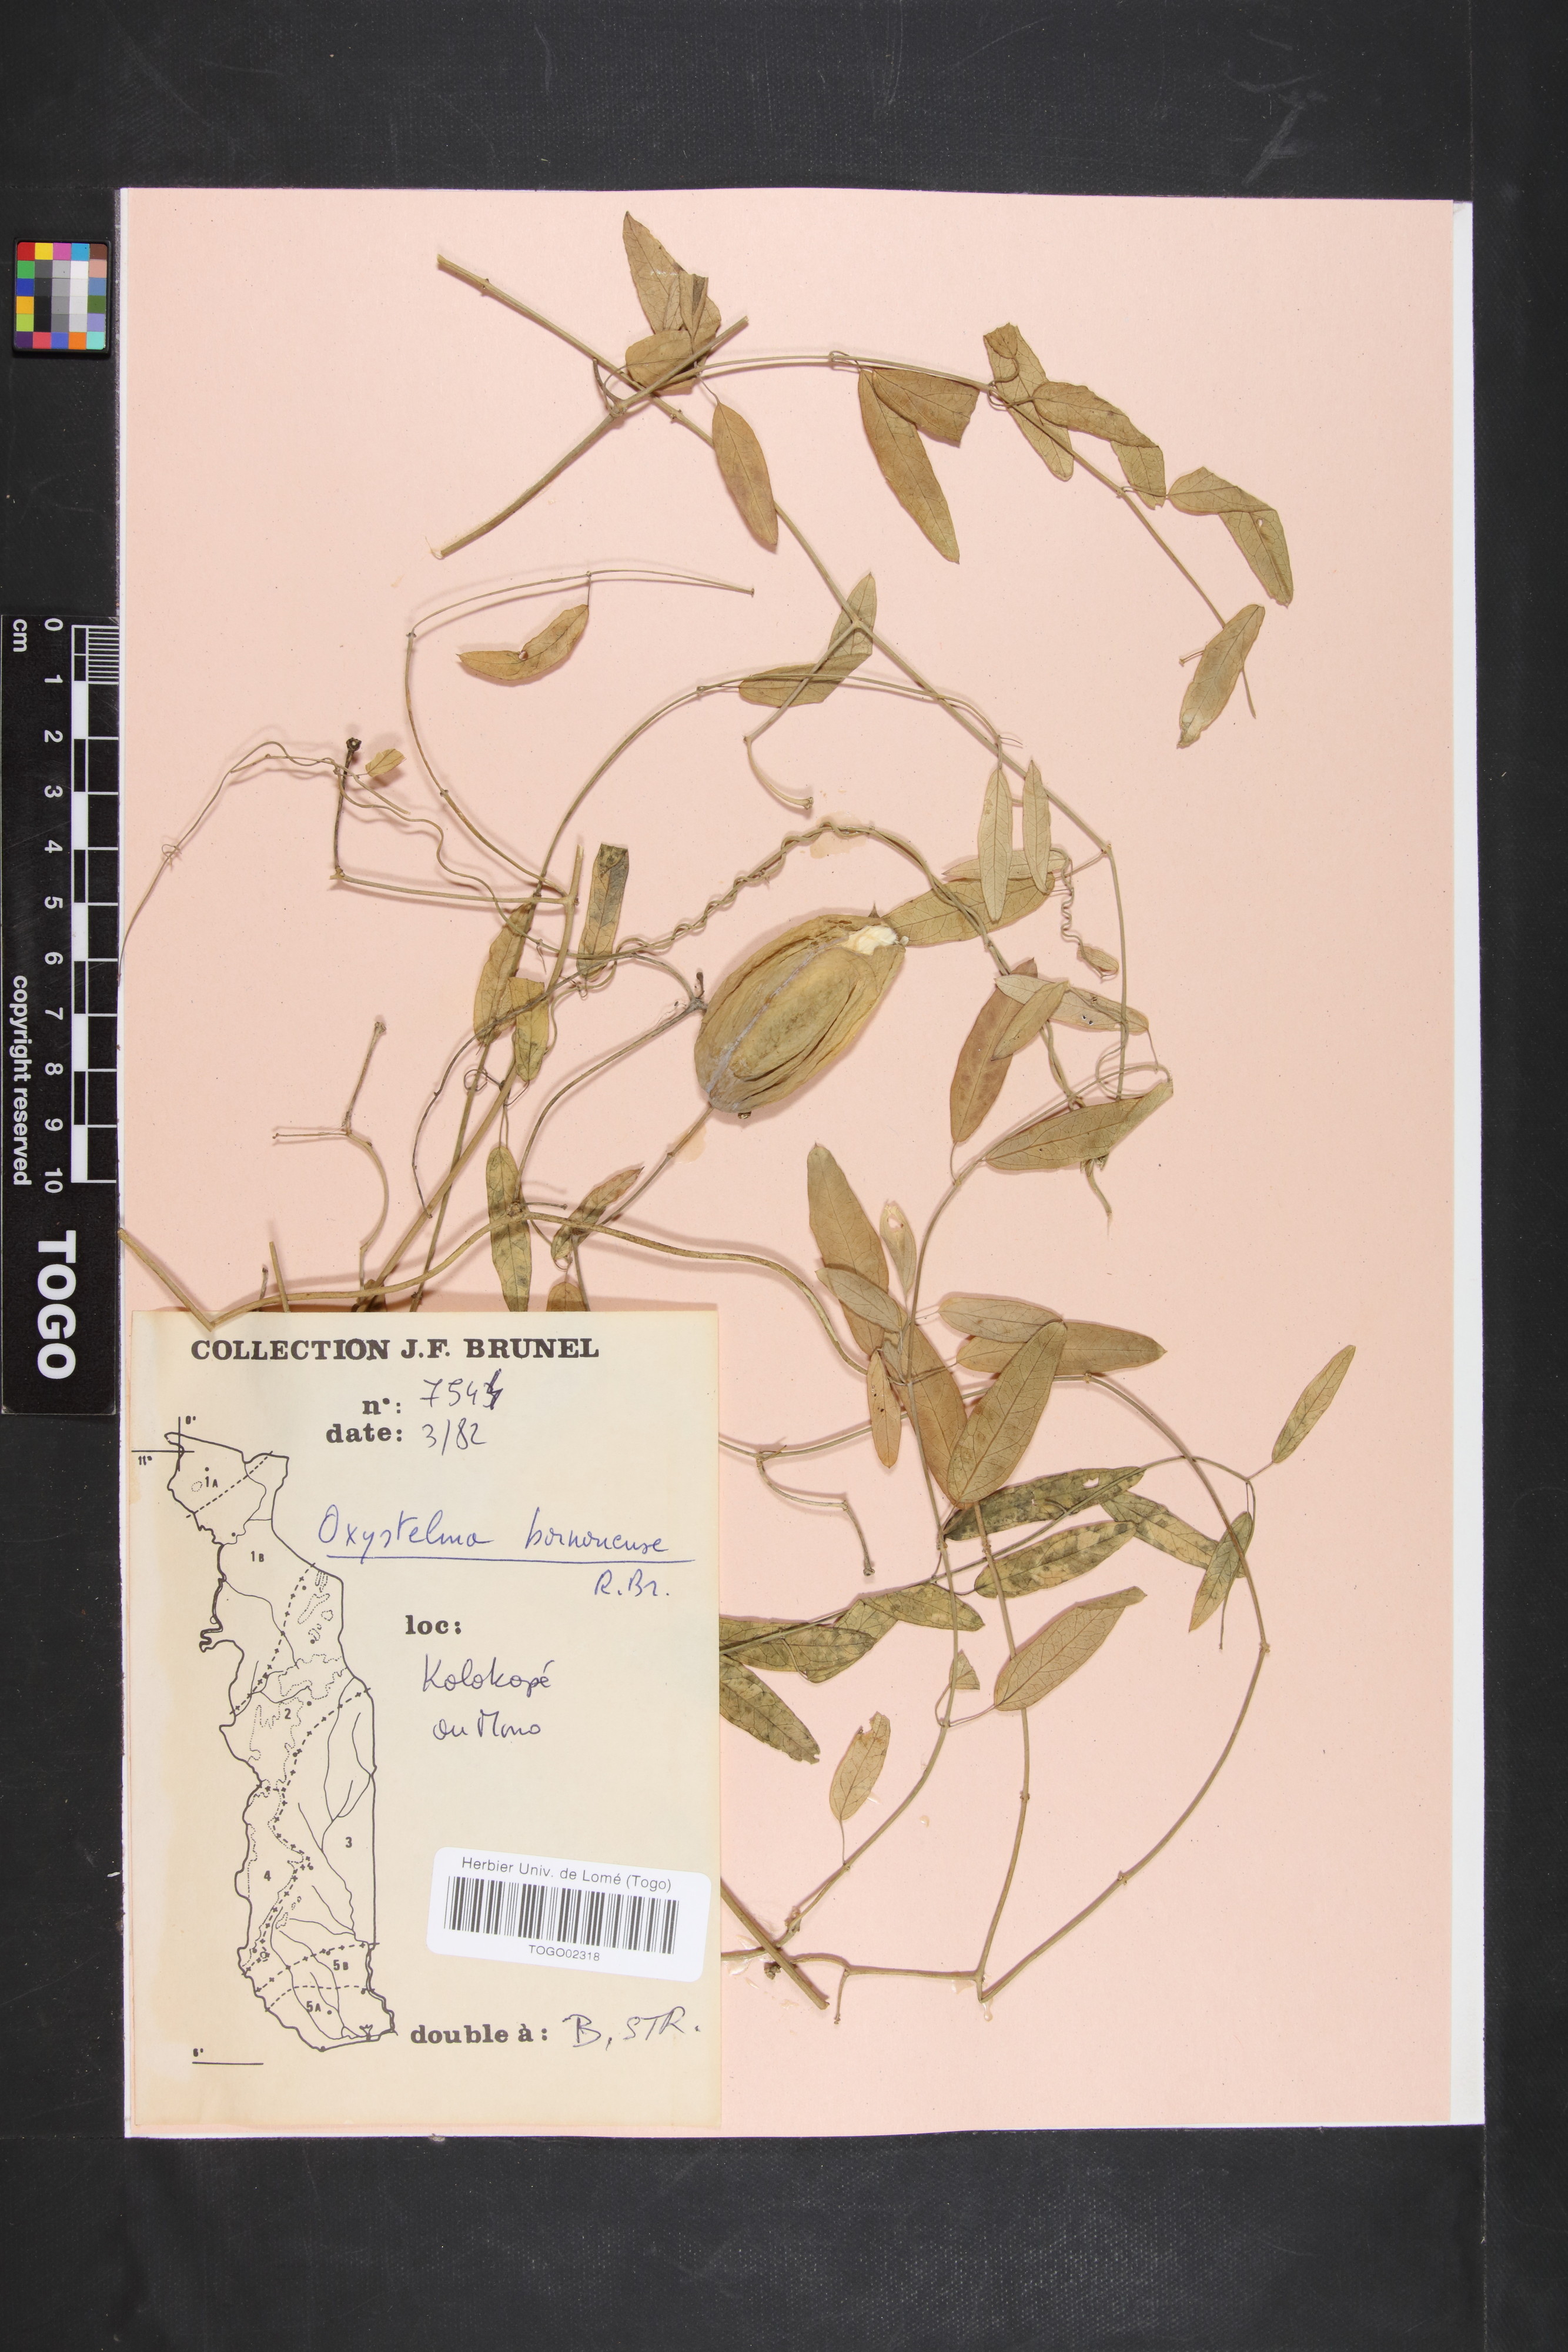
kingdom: Plantae
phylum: Tracheophyta
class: Magnoliopsida
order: Gentianales
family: Apocynaceae
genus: Oxystelma
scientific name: Oxystelma bornouense
